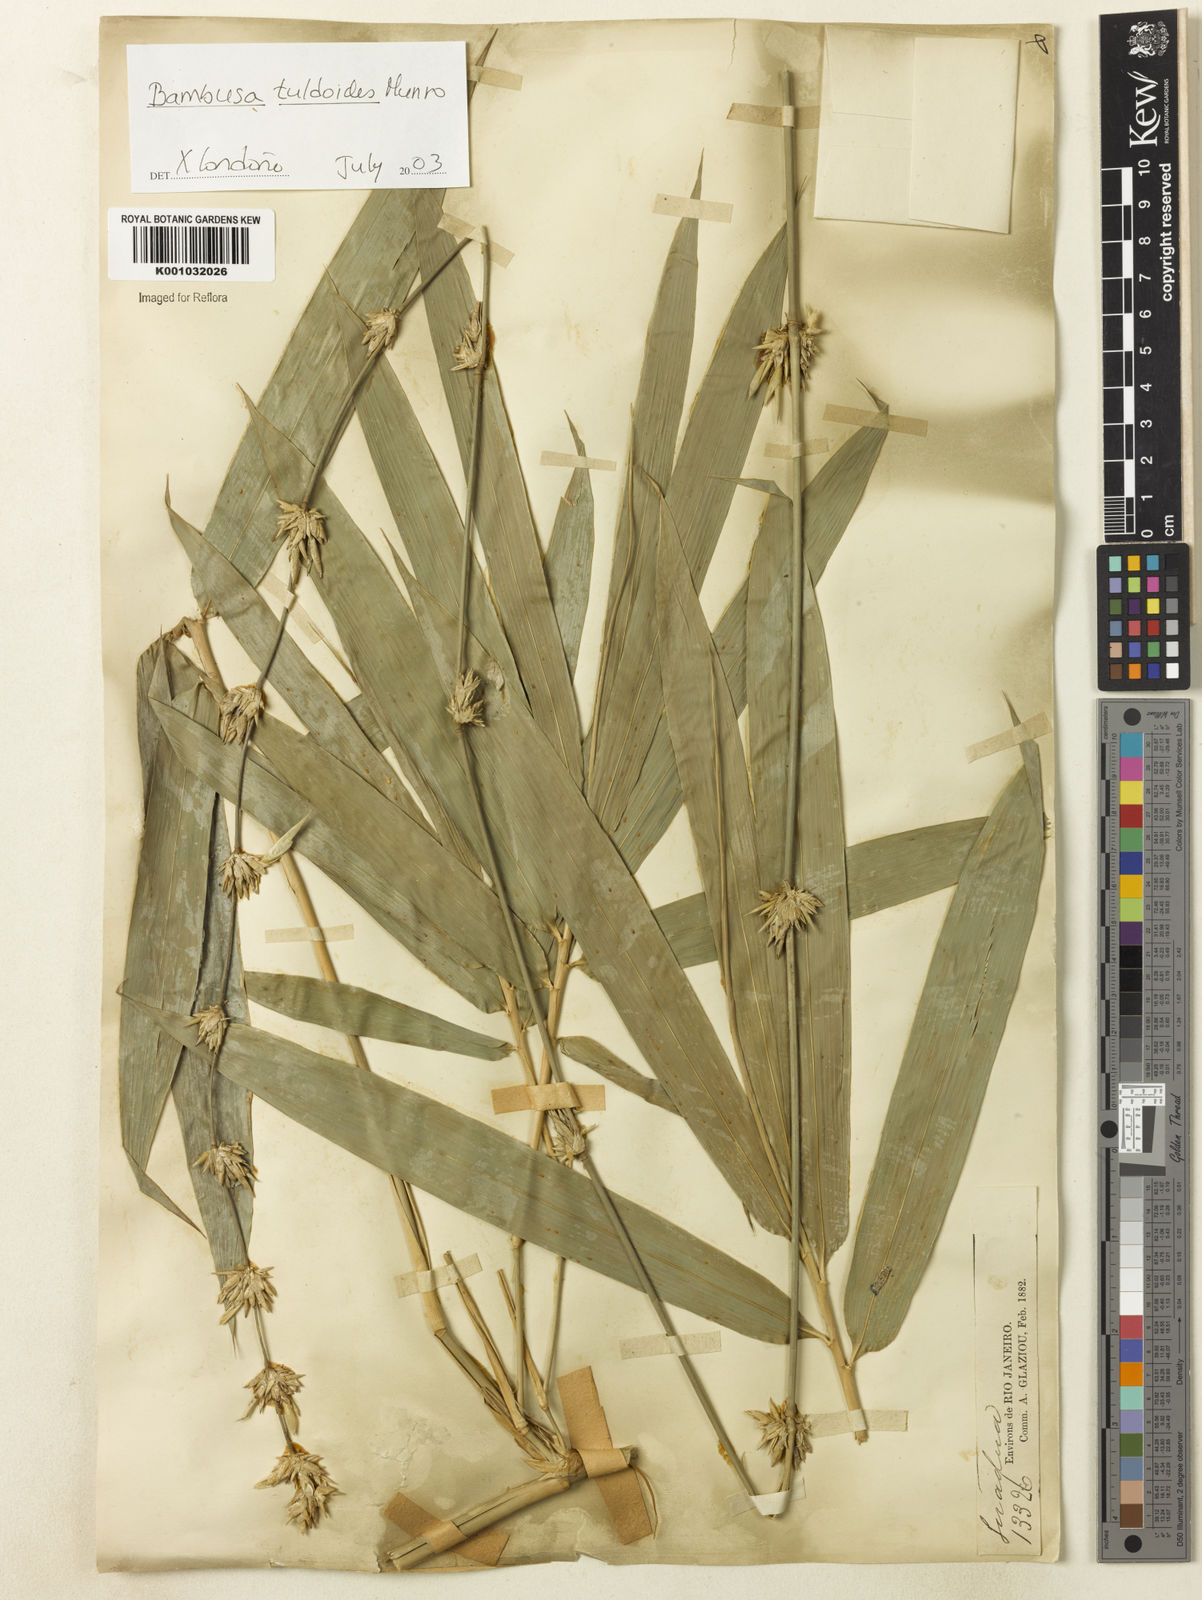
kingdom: Plantae
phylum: Tracheophyta
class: Liliopsida
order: Poales
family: Poaceae
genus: Bambusa
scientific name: Bambusa tuldoides
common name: Verdant bamboo
